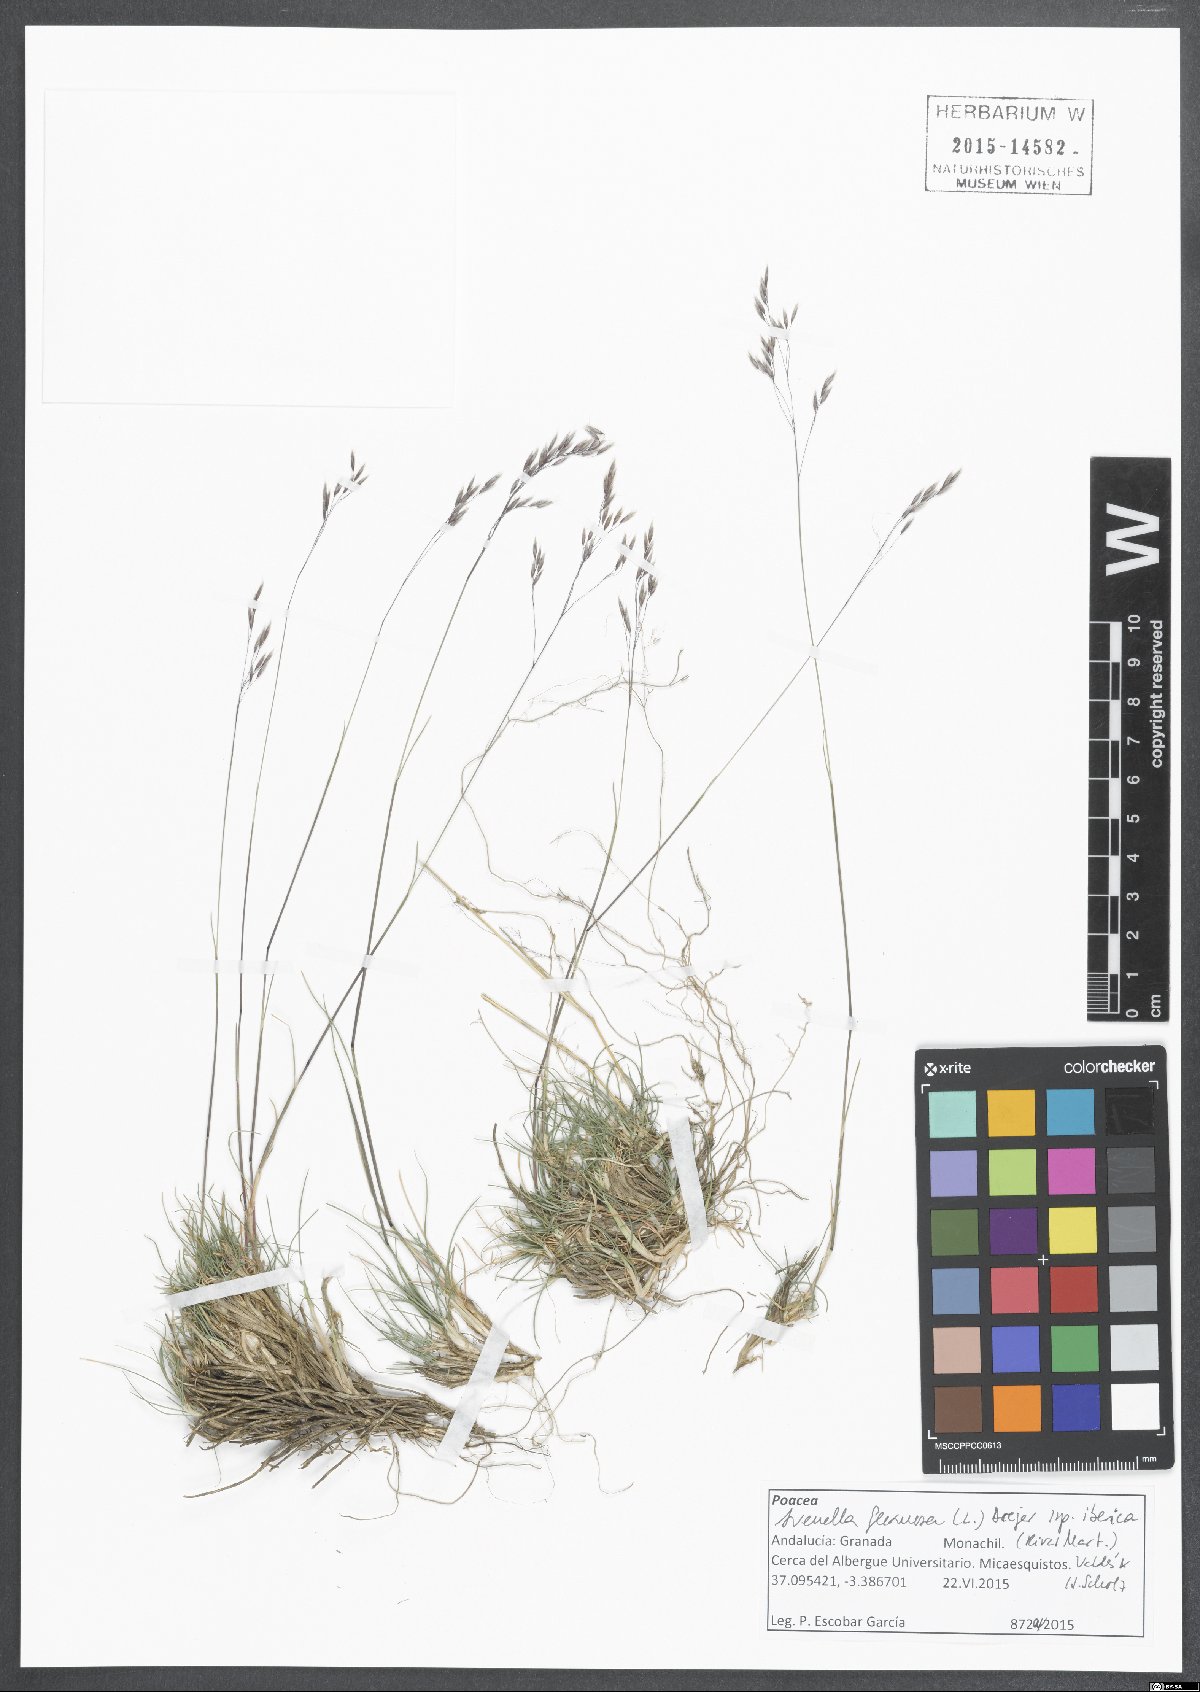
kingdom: Plantae
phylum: Tracheophyta
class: Liliopsida
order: Poales
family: Poaceae
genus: Avenella
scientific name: Avenella flexuosa
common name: Wavy hairgrass
